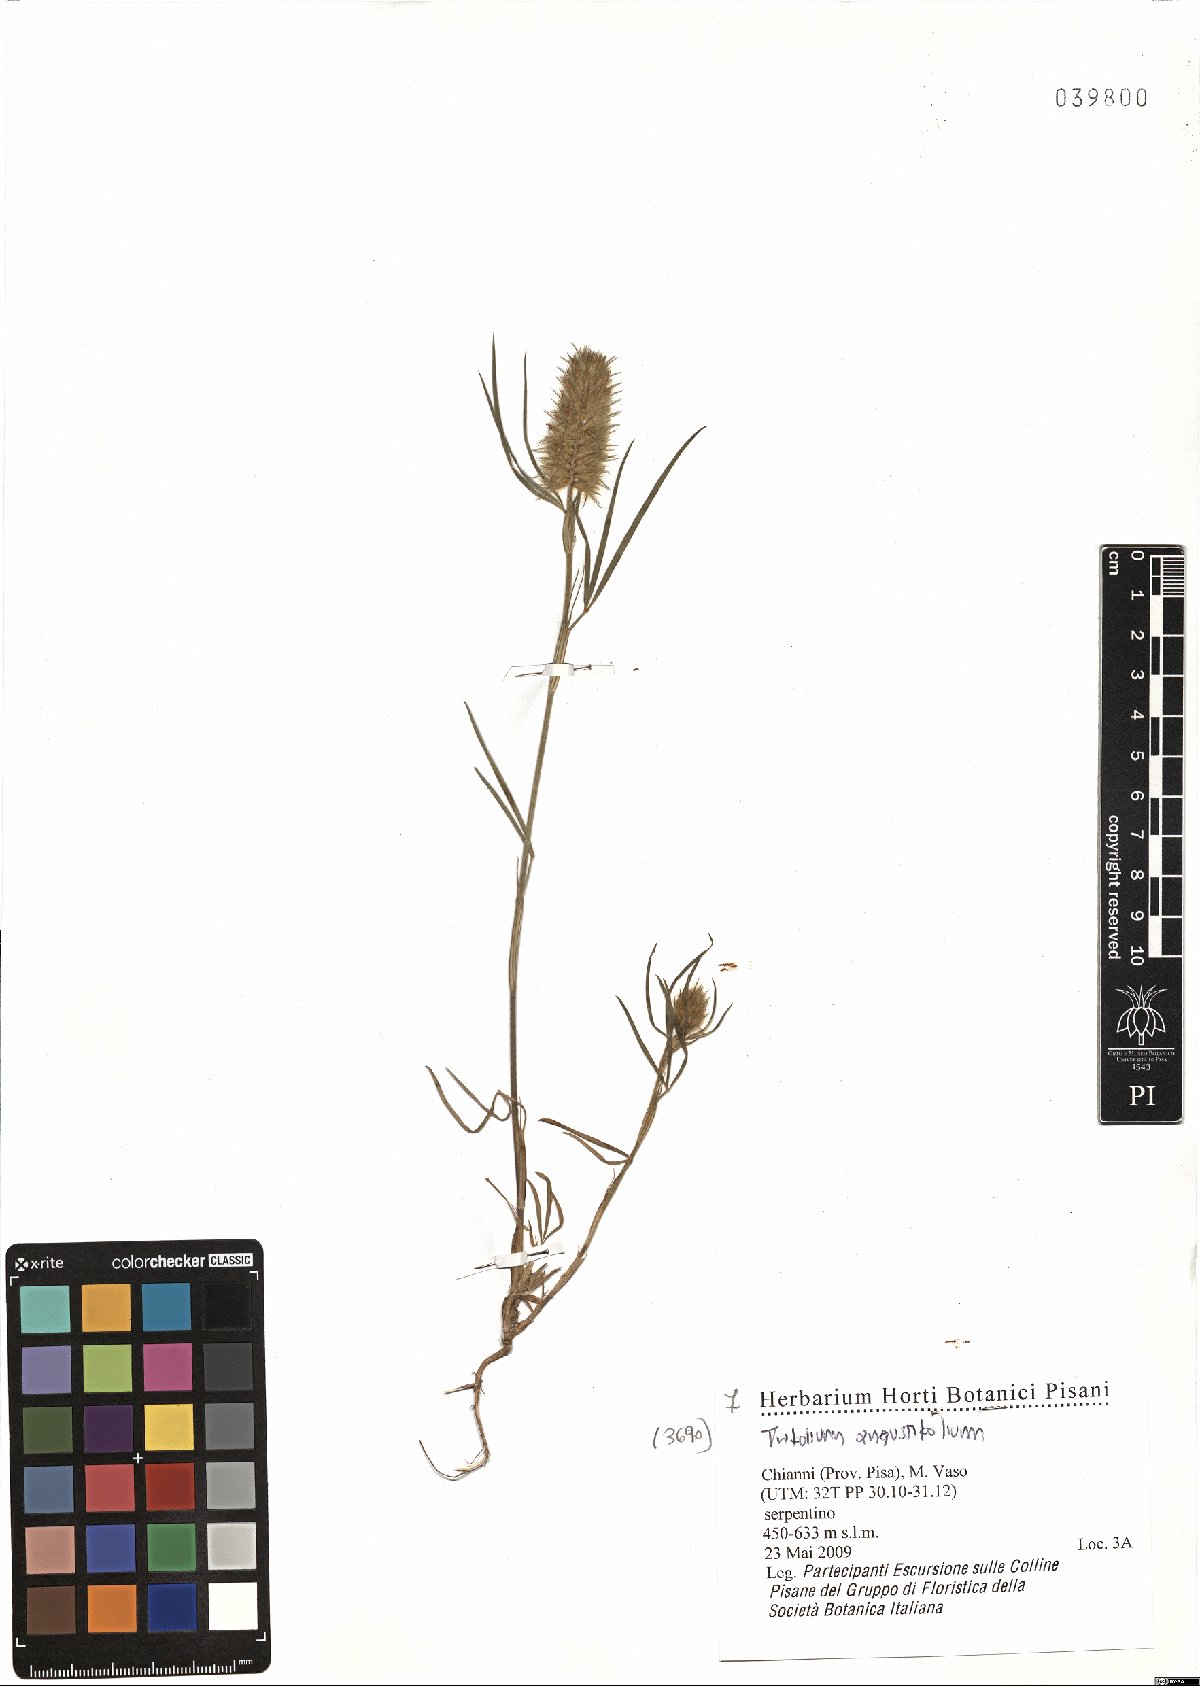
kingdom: Plantae
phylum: Tracheophyta
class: Magnoliopsida
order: Fabales
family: Fabaceae
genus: Trifolium
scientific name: Trifolium angustifolium
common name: Narrow clover
